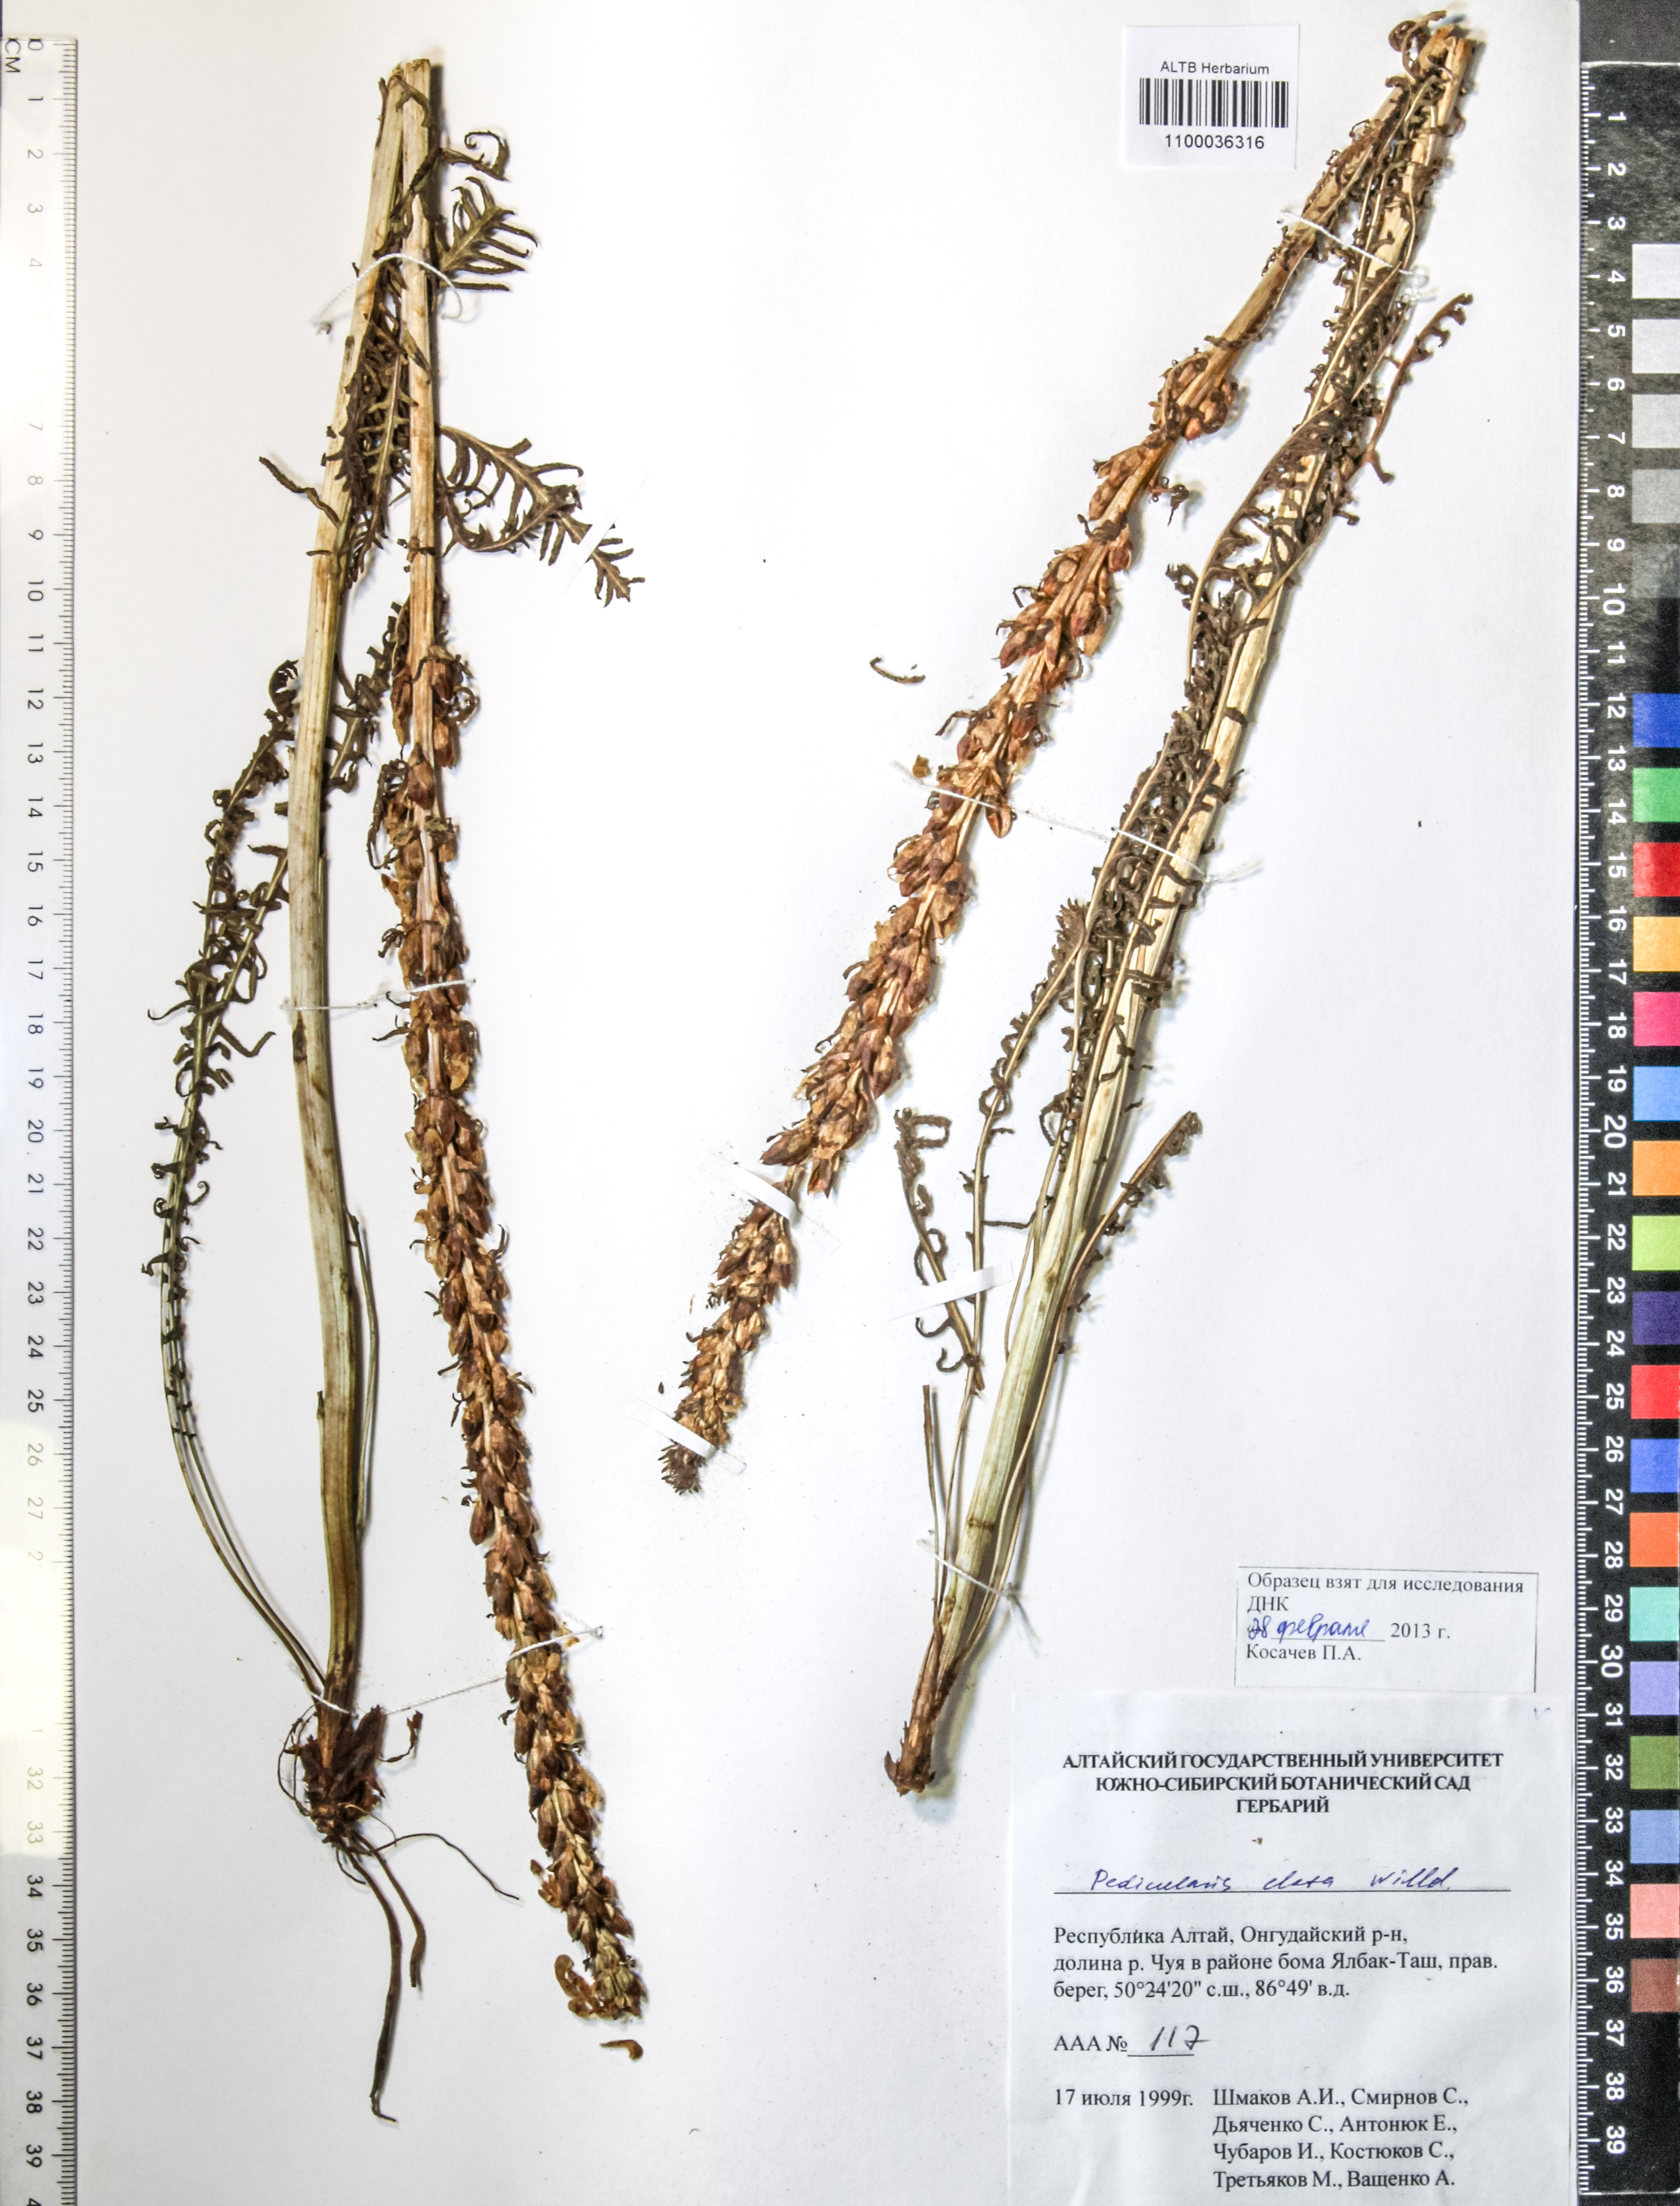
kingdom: Plantae
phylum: Tracheophyta
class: Magnoliopsida
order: Lamiales
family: Orobanchaceae
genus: Pedicularis
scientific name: Pedicularis elata
